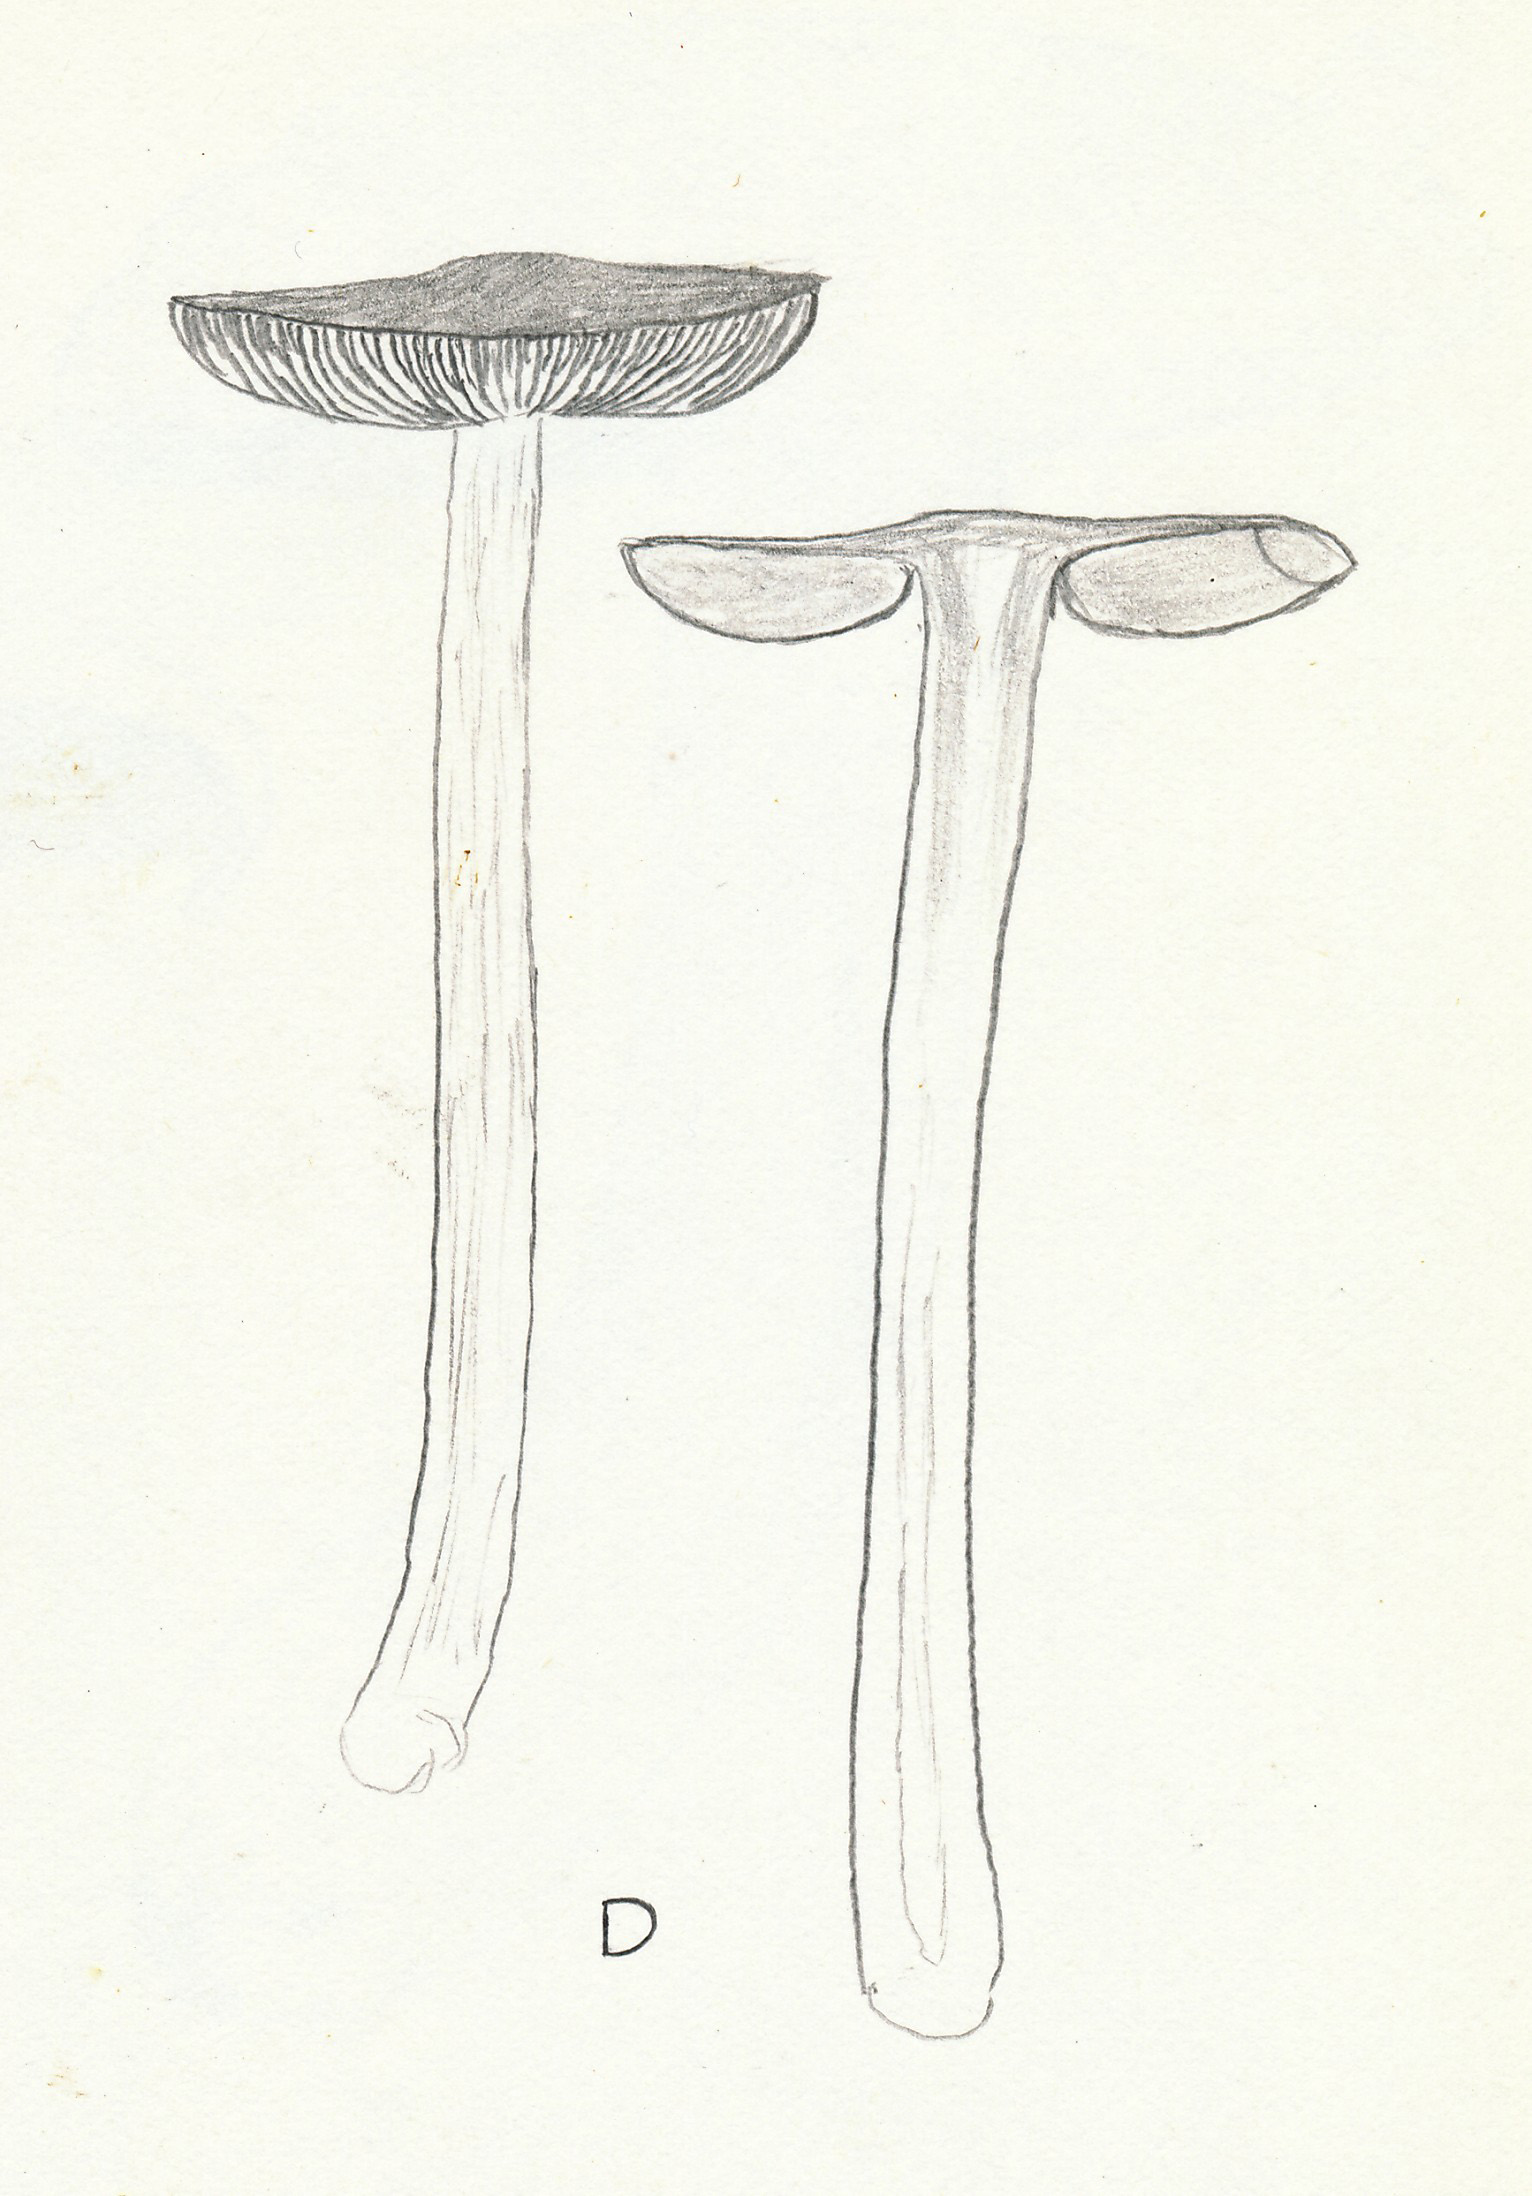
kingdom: Fungi
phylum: Basidiomycota
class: Agaricomycetes
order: Agaricales
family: Pluteaceae
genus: Pluteus
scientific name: Pluteus
